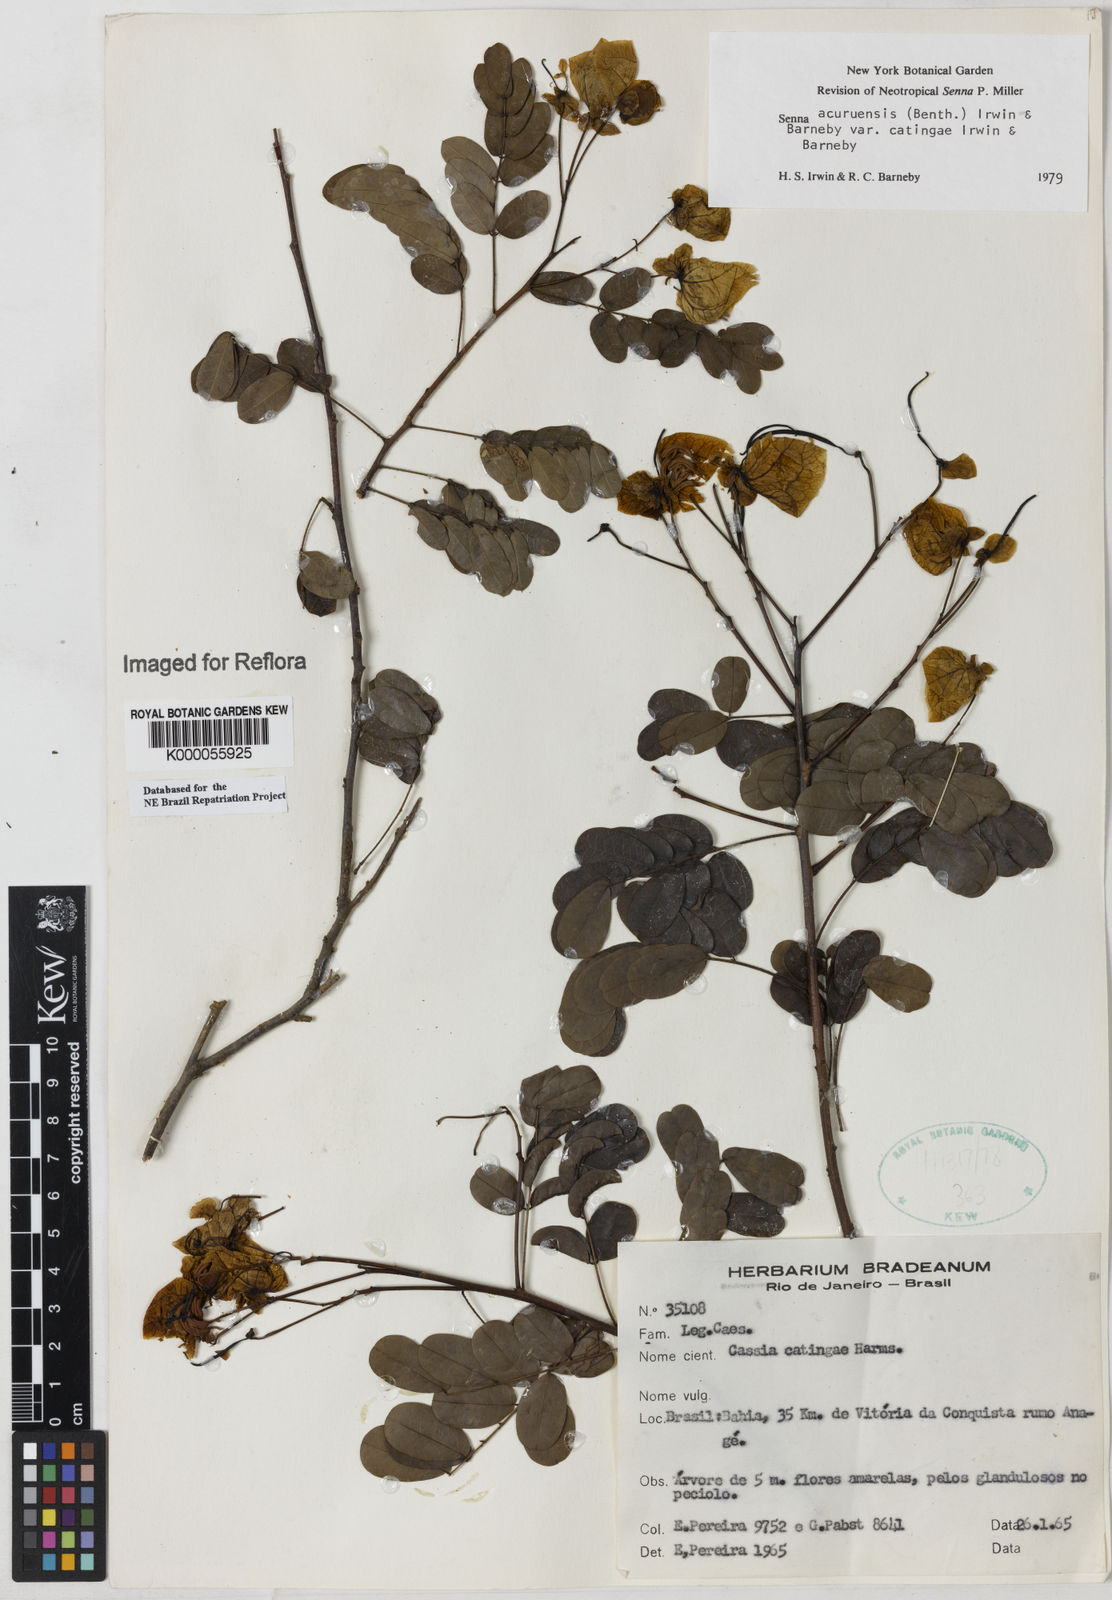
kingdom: Plantae
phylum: Tracheophyta
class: Magnoliopsida
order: Fabales
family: Fabaceae
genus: Senna
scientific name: Senna catingae
